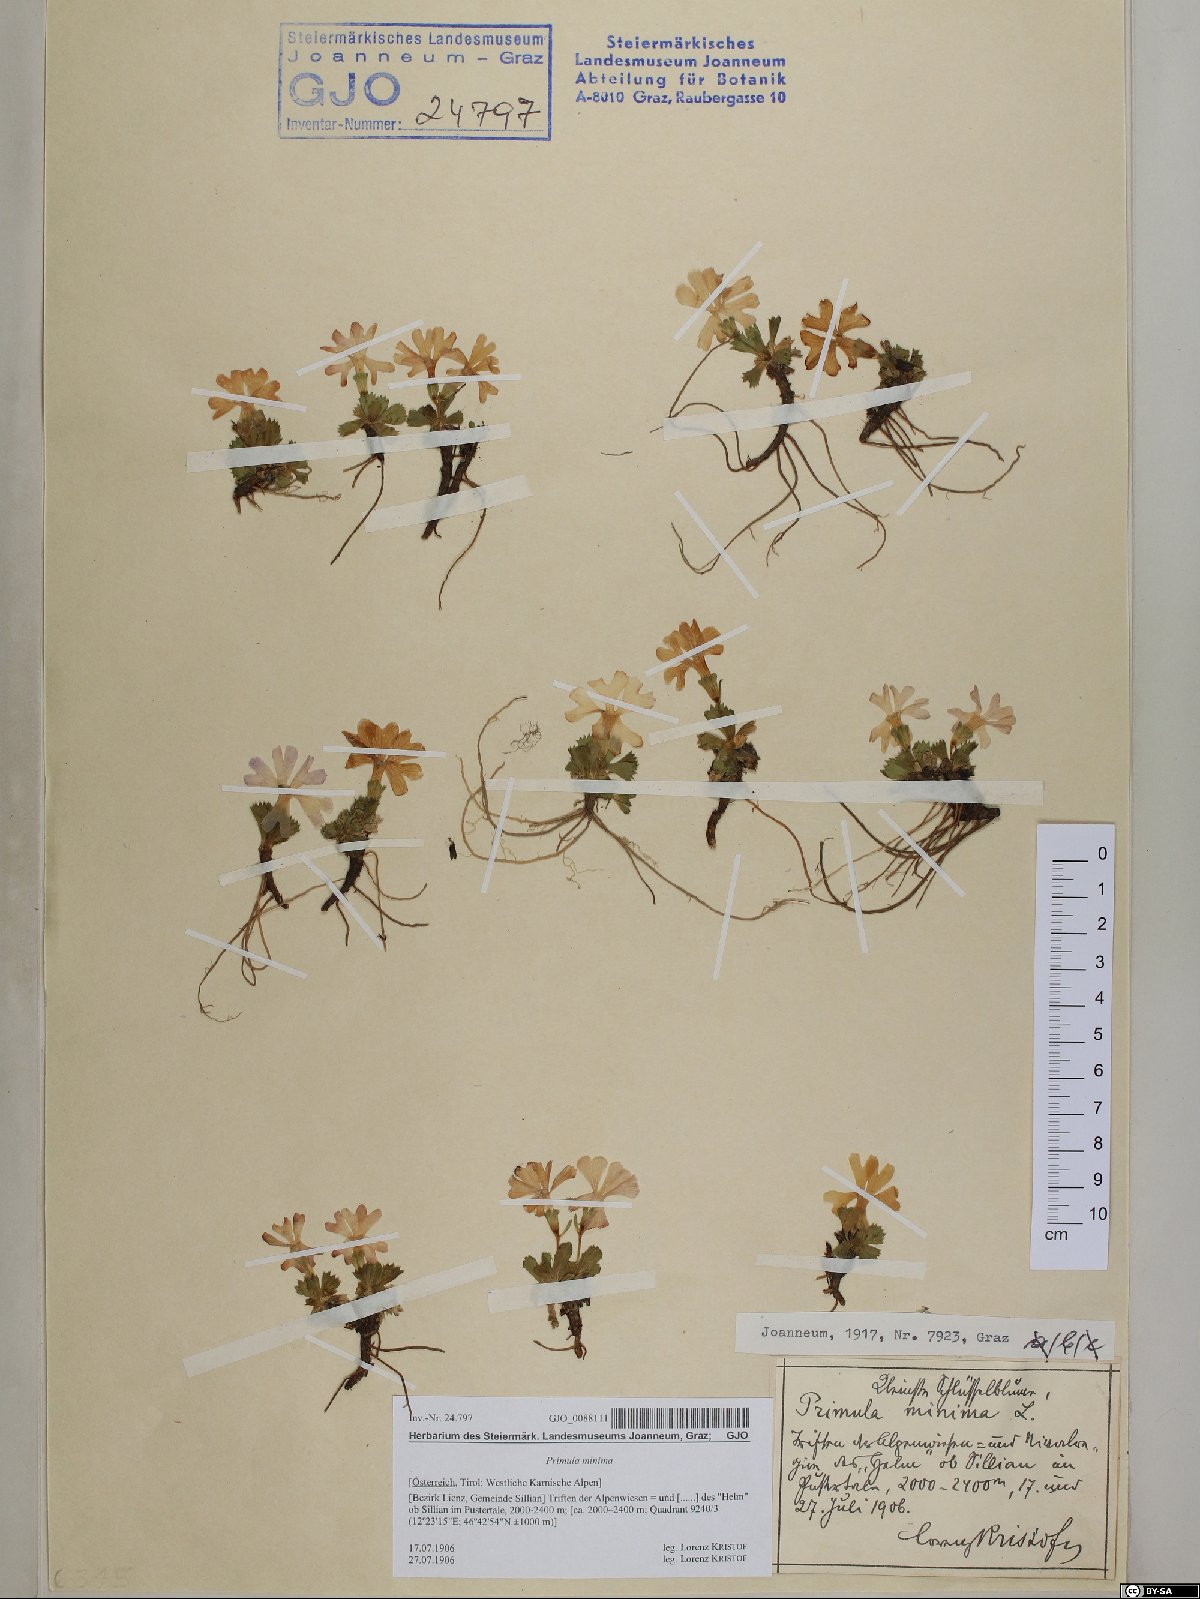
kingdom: Plantae
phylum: Tracheophyta
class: Magnoliopsida
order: Ericales
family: Primulaceae
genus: Primula
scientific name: Primula minima
